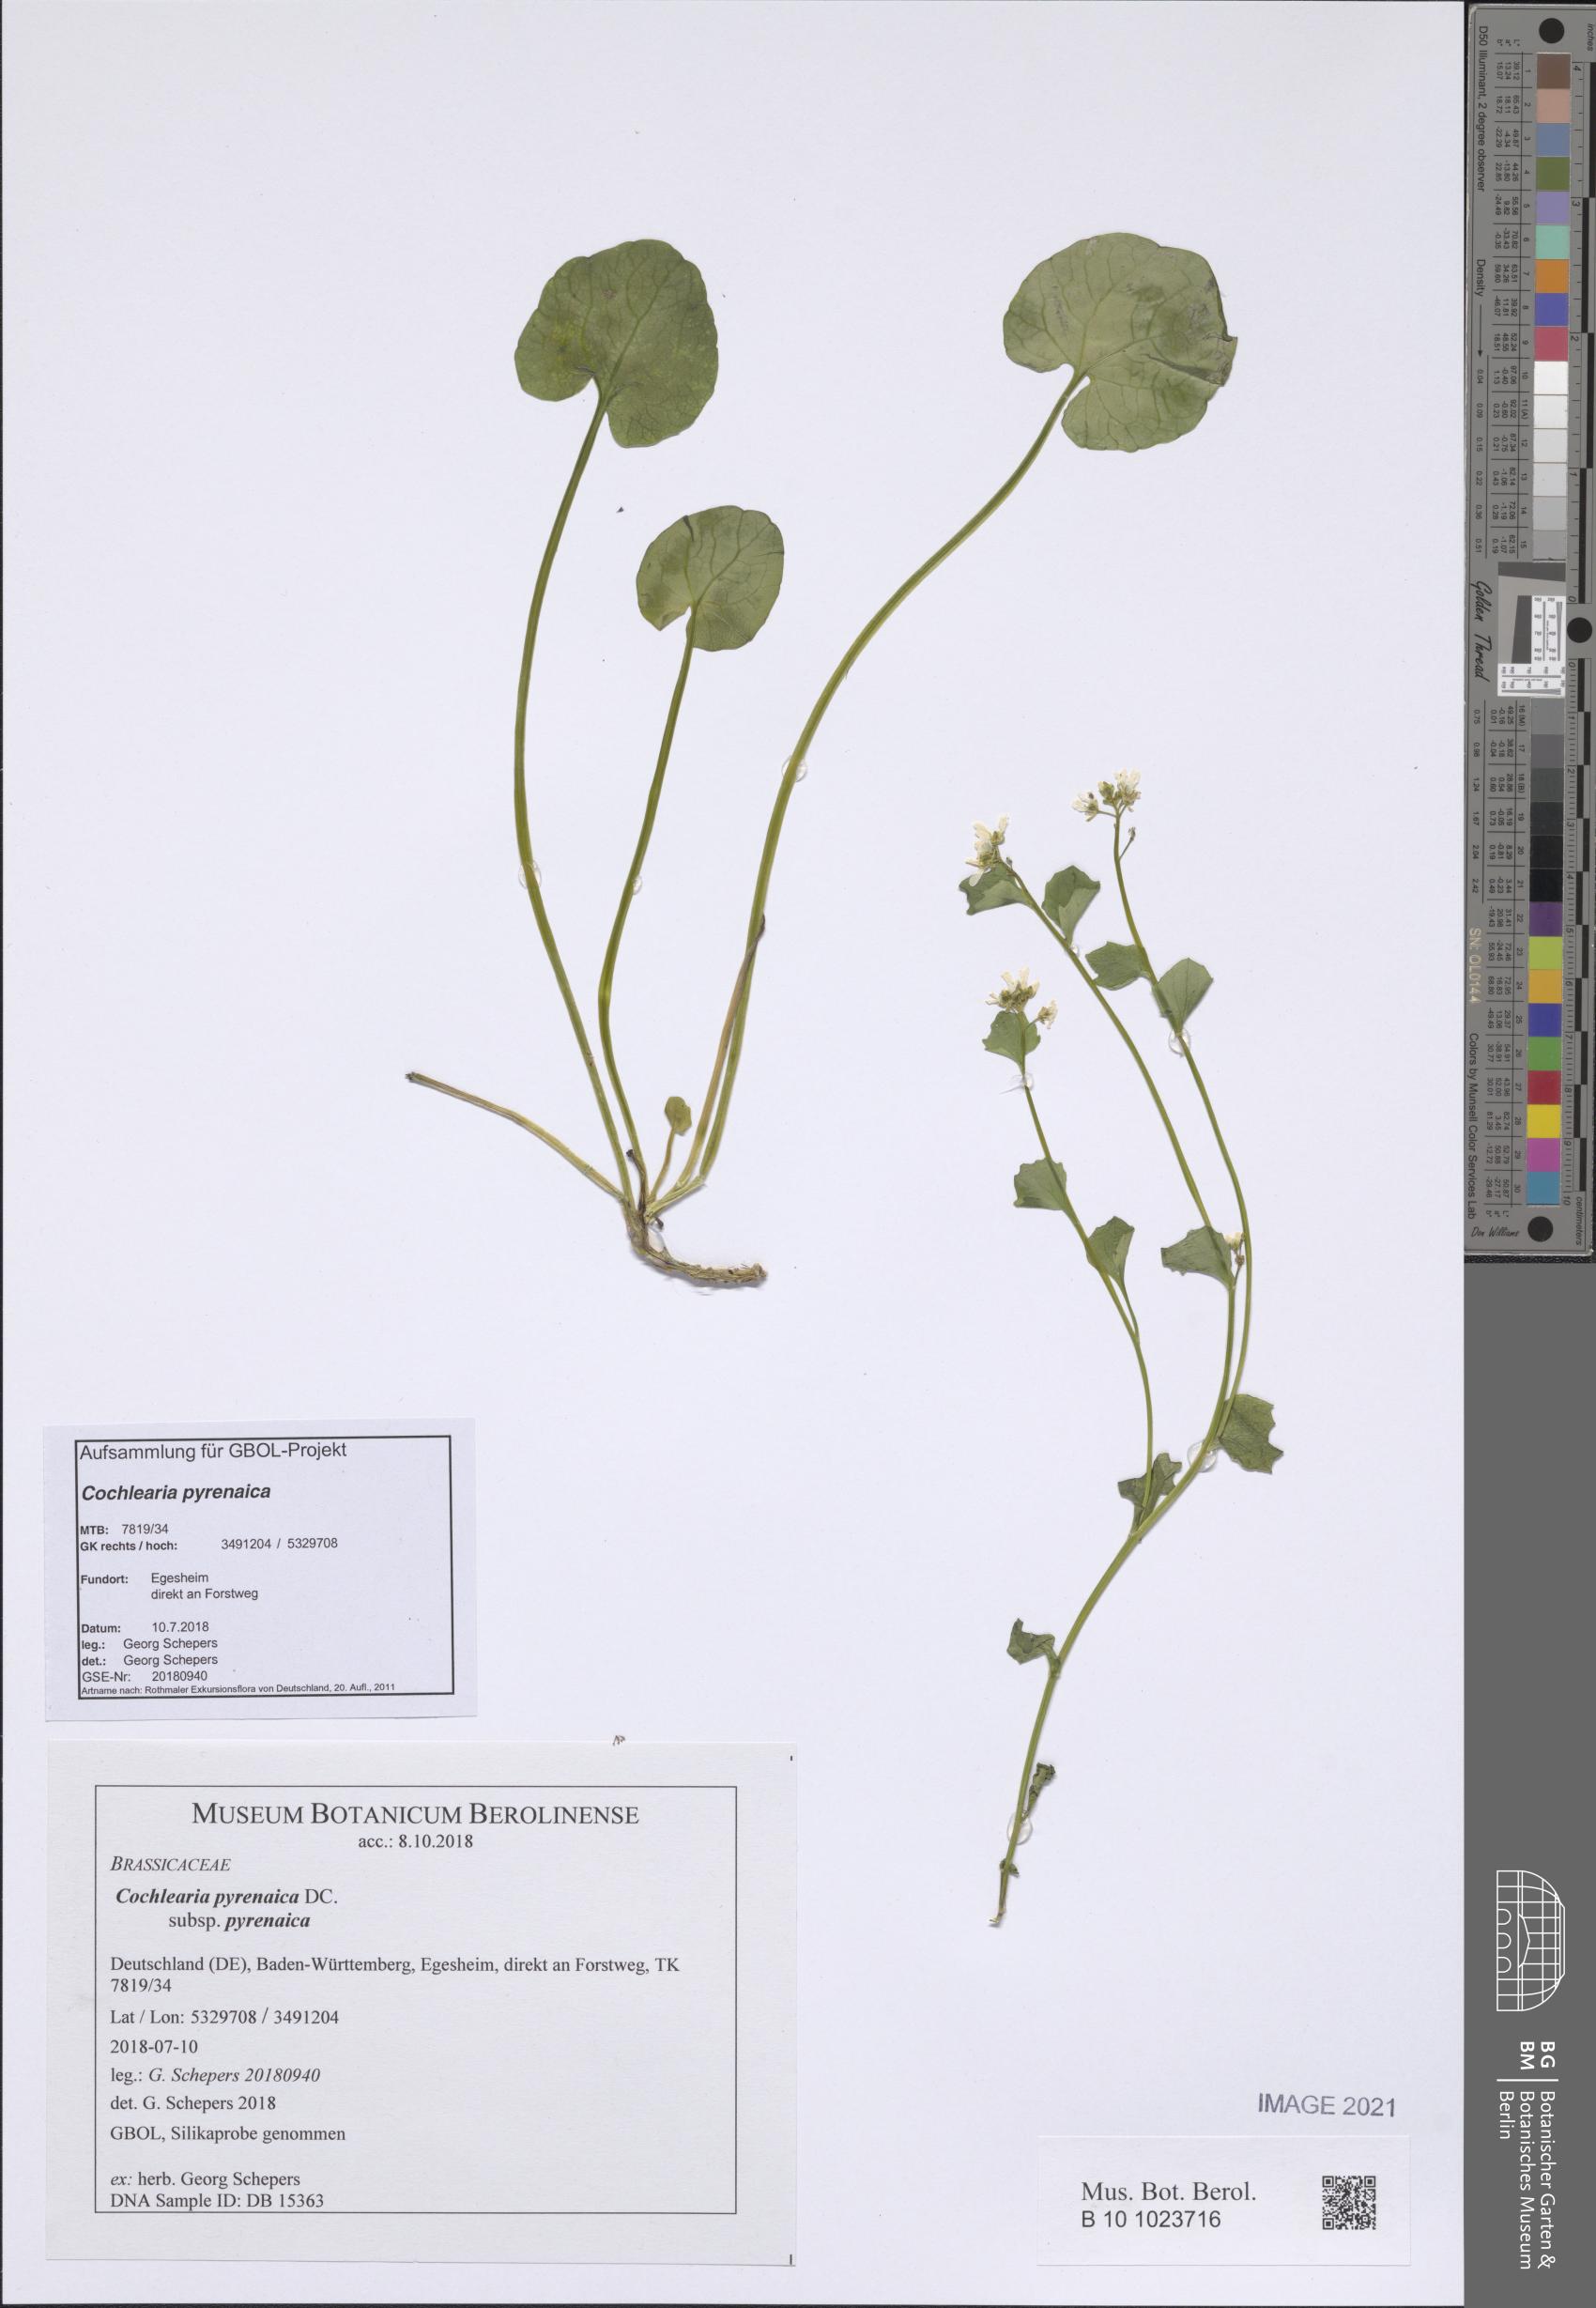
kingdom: Plantae
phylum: Tracheophyta
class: Magnoliopsida
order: Brassicales
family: Brassicaceae
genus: Cochlearia
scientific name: Cochlearia pyrenaica
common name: Upland scurvy-grass
